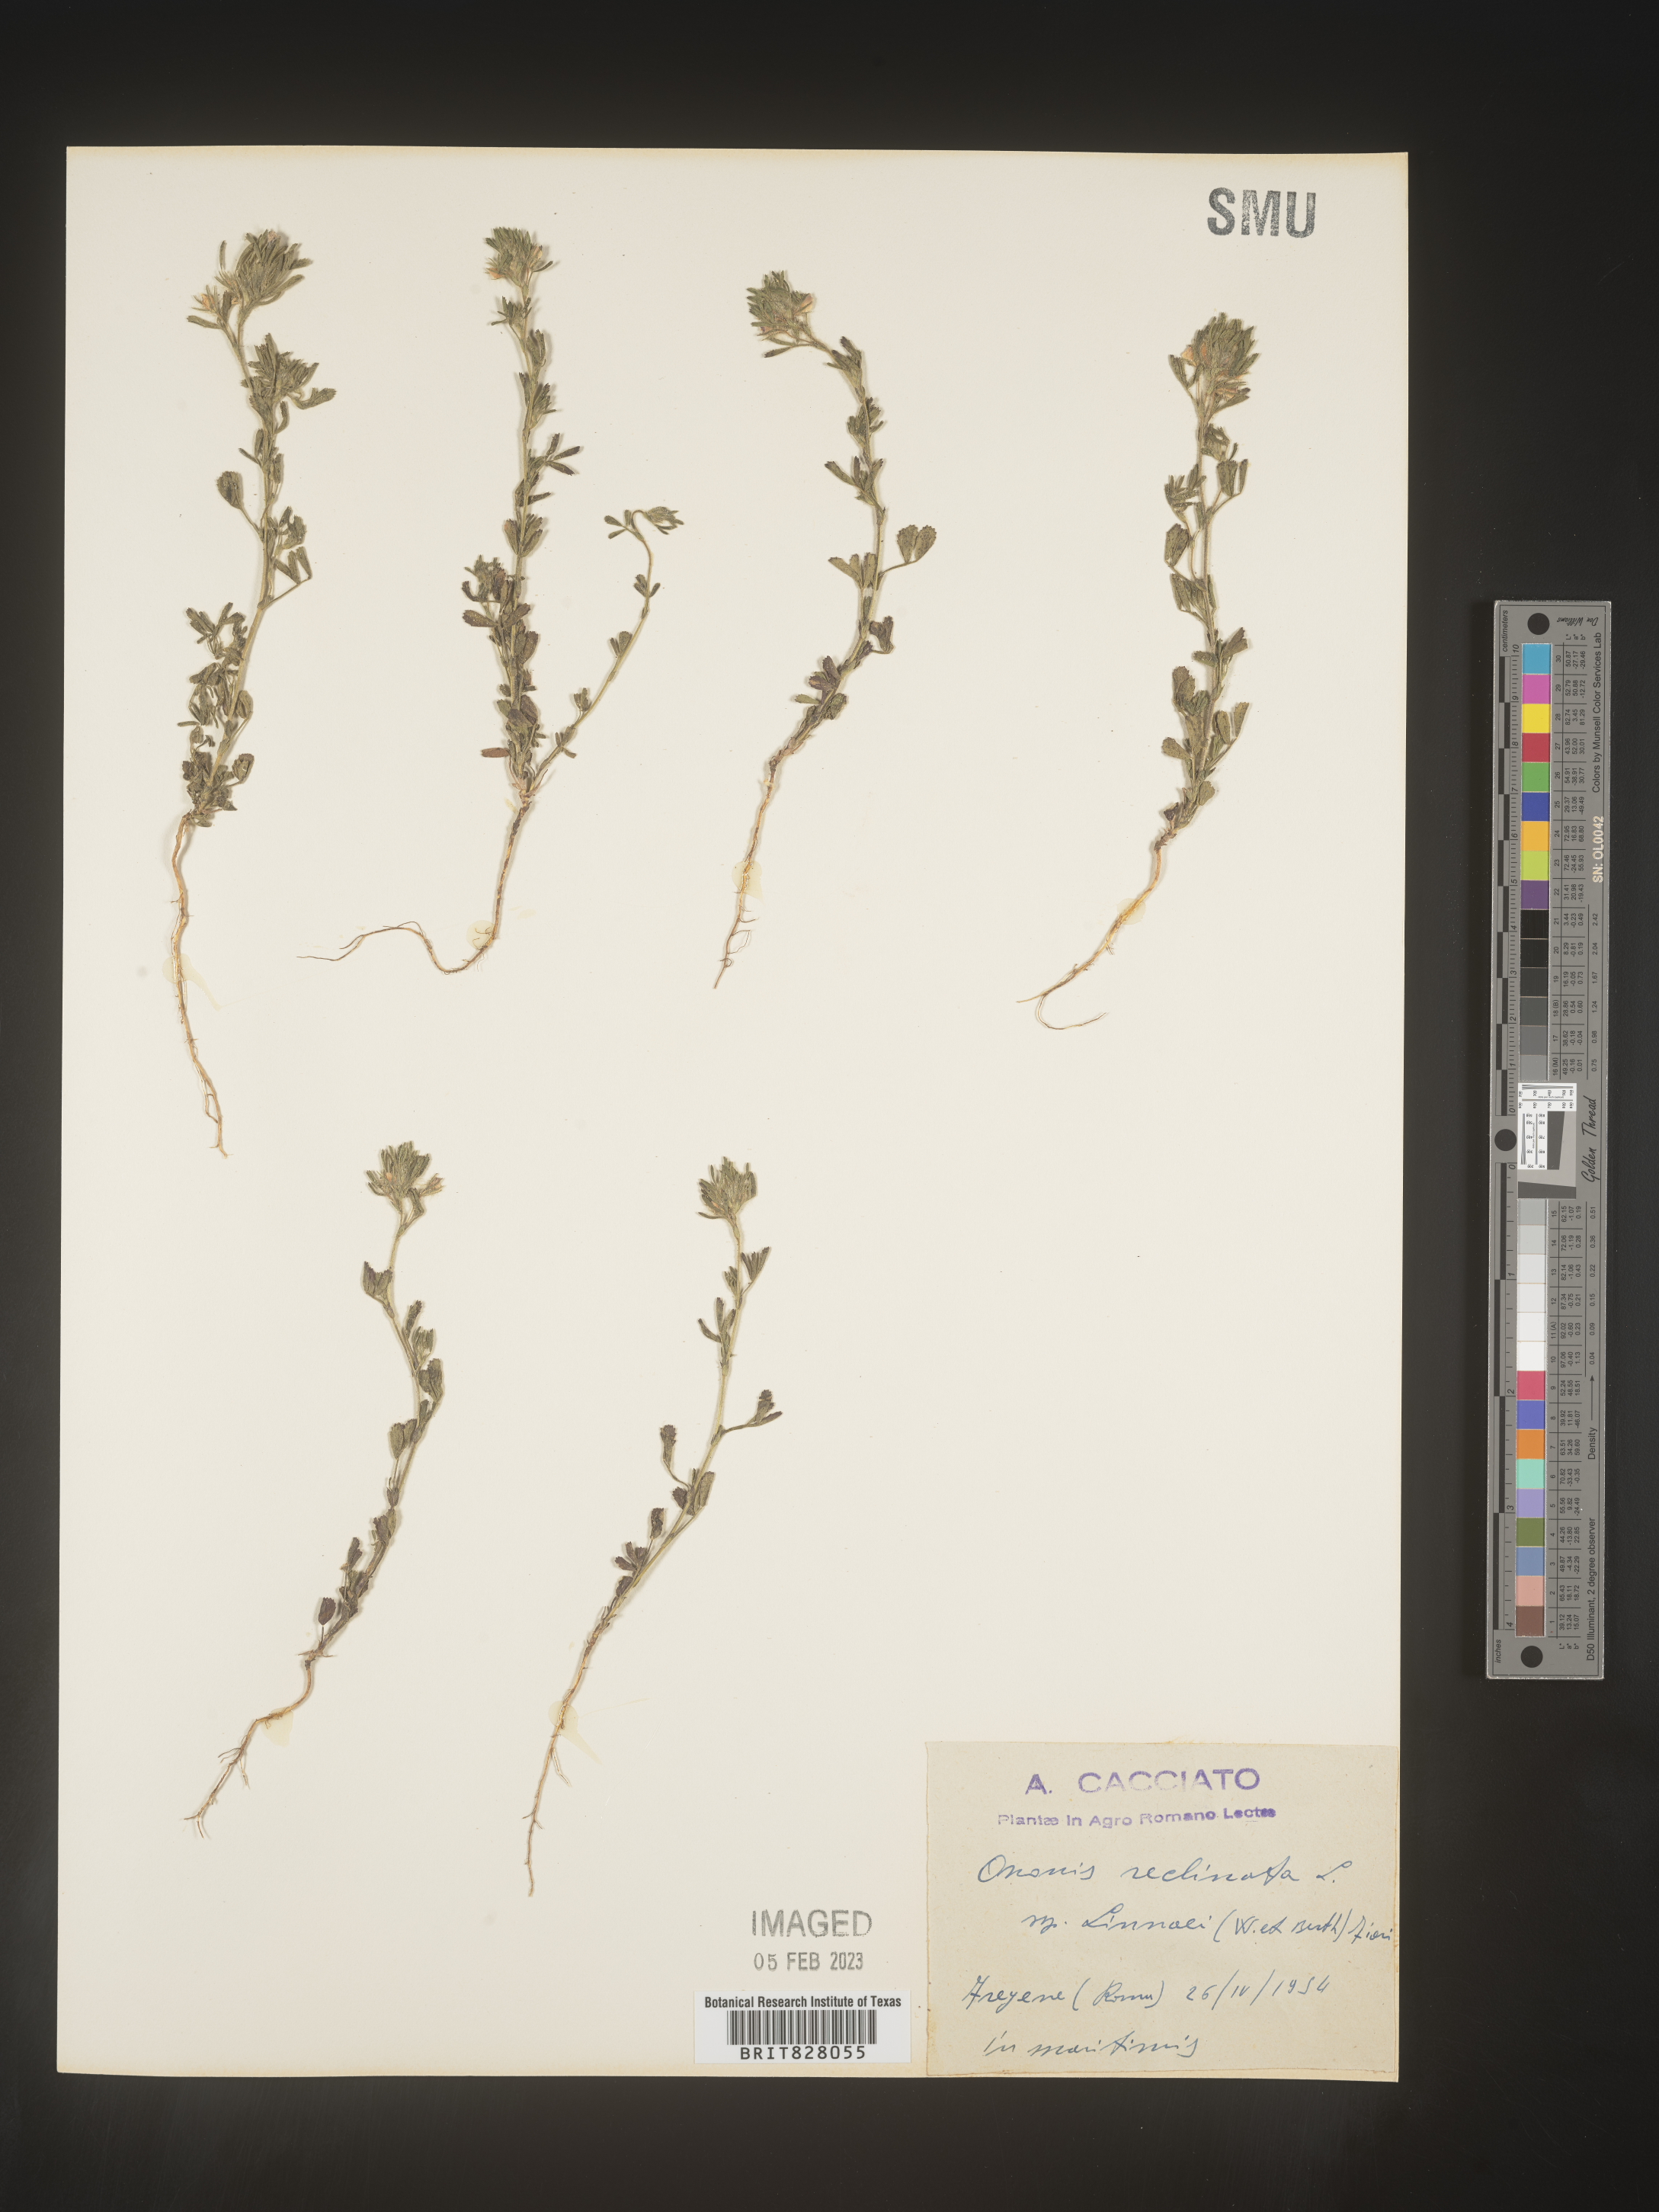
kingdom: Plantae
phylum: Tracheophyta
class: Magnoliopsida
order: Fabales
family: Fabaceae
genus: Ononis
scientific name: Ononis
